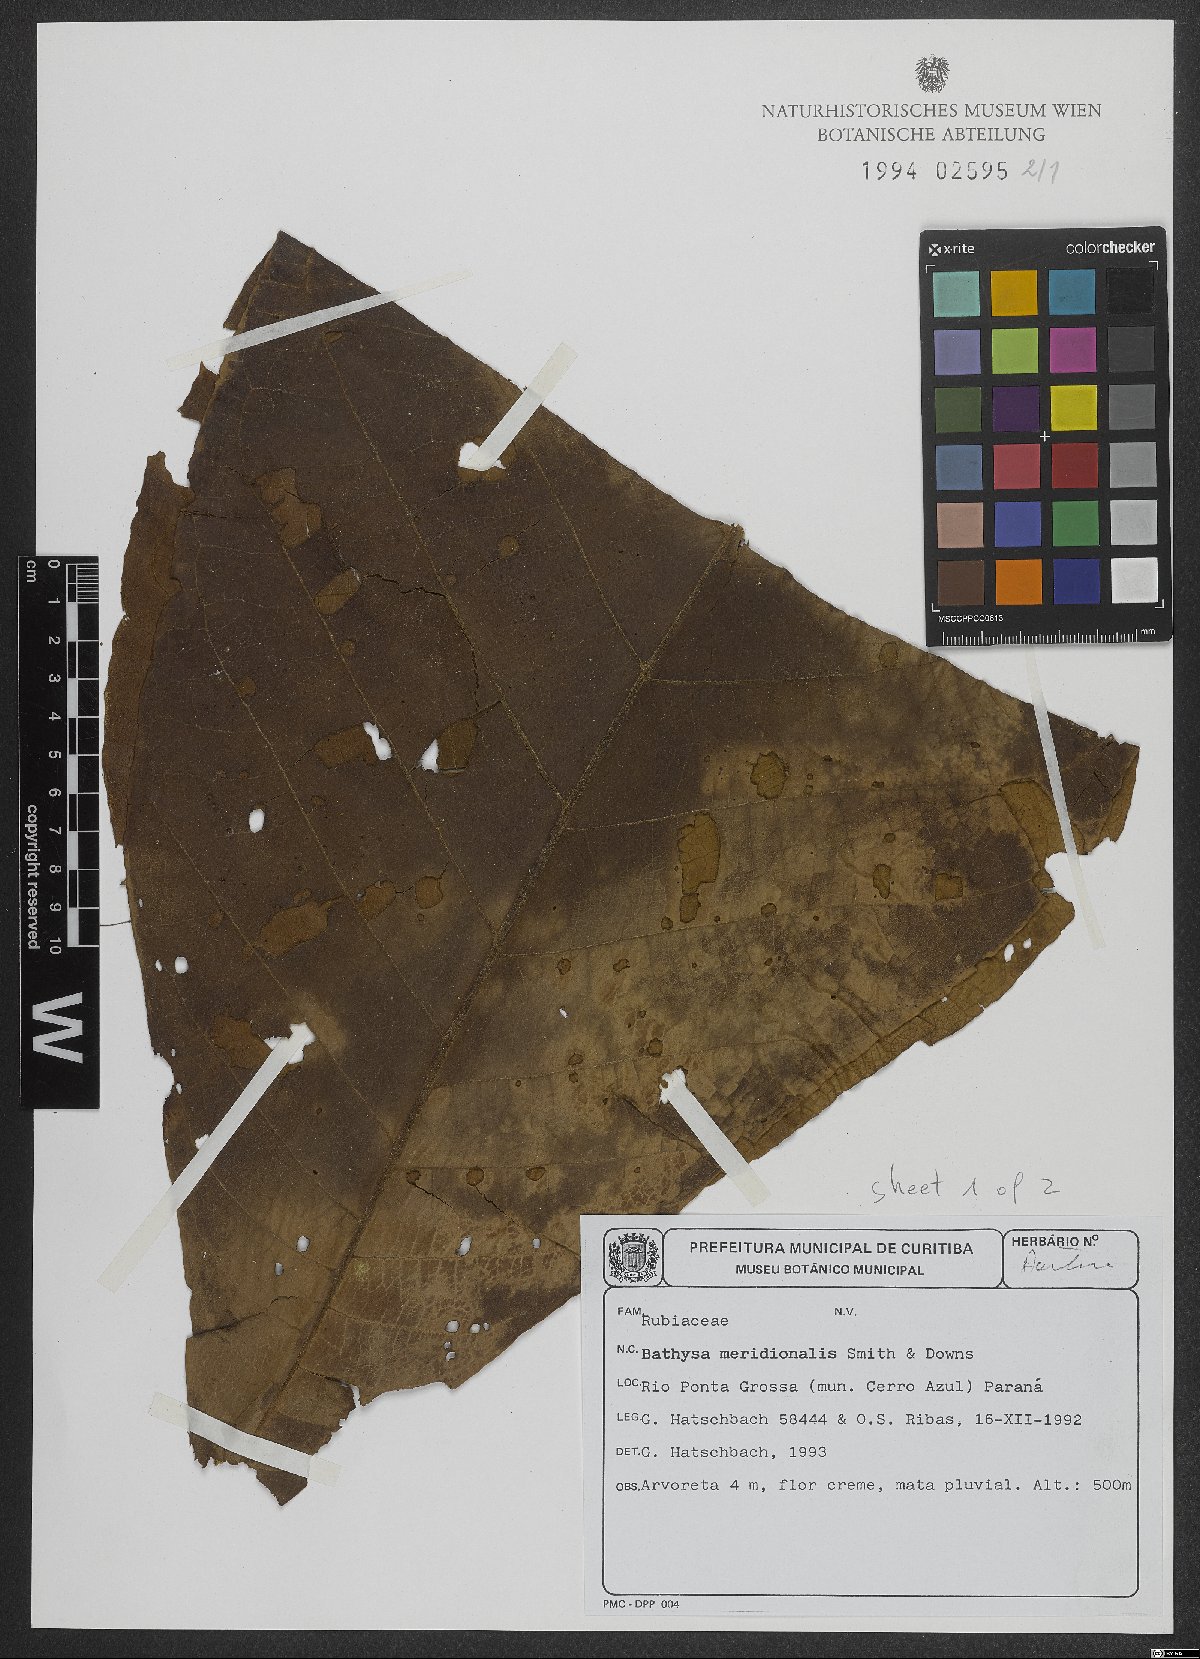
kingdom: Plantae
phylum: Tracheophyta
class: Magnoliopsida
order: Gentianales
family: Rubiaceae
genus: Bathysa
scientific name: Bathysa australis
